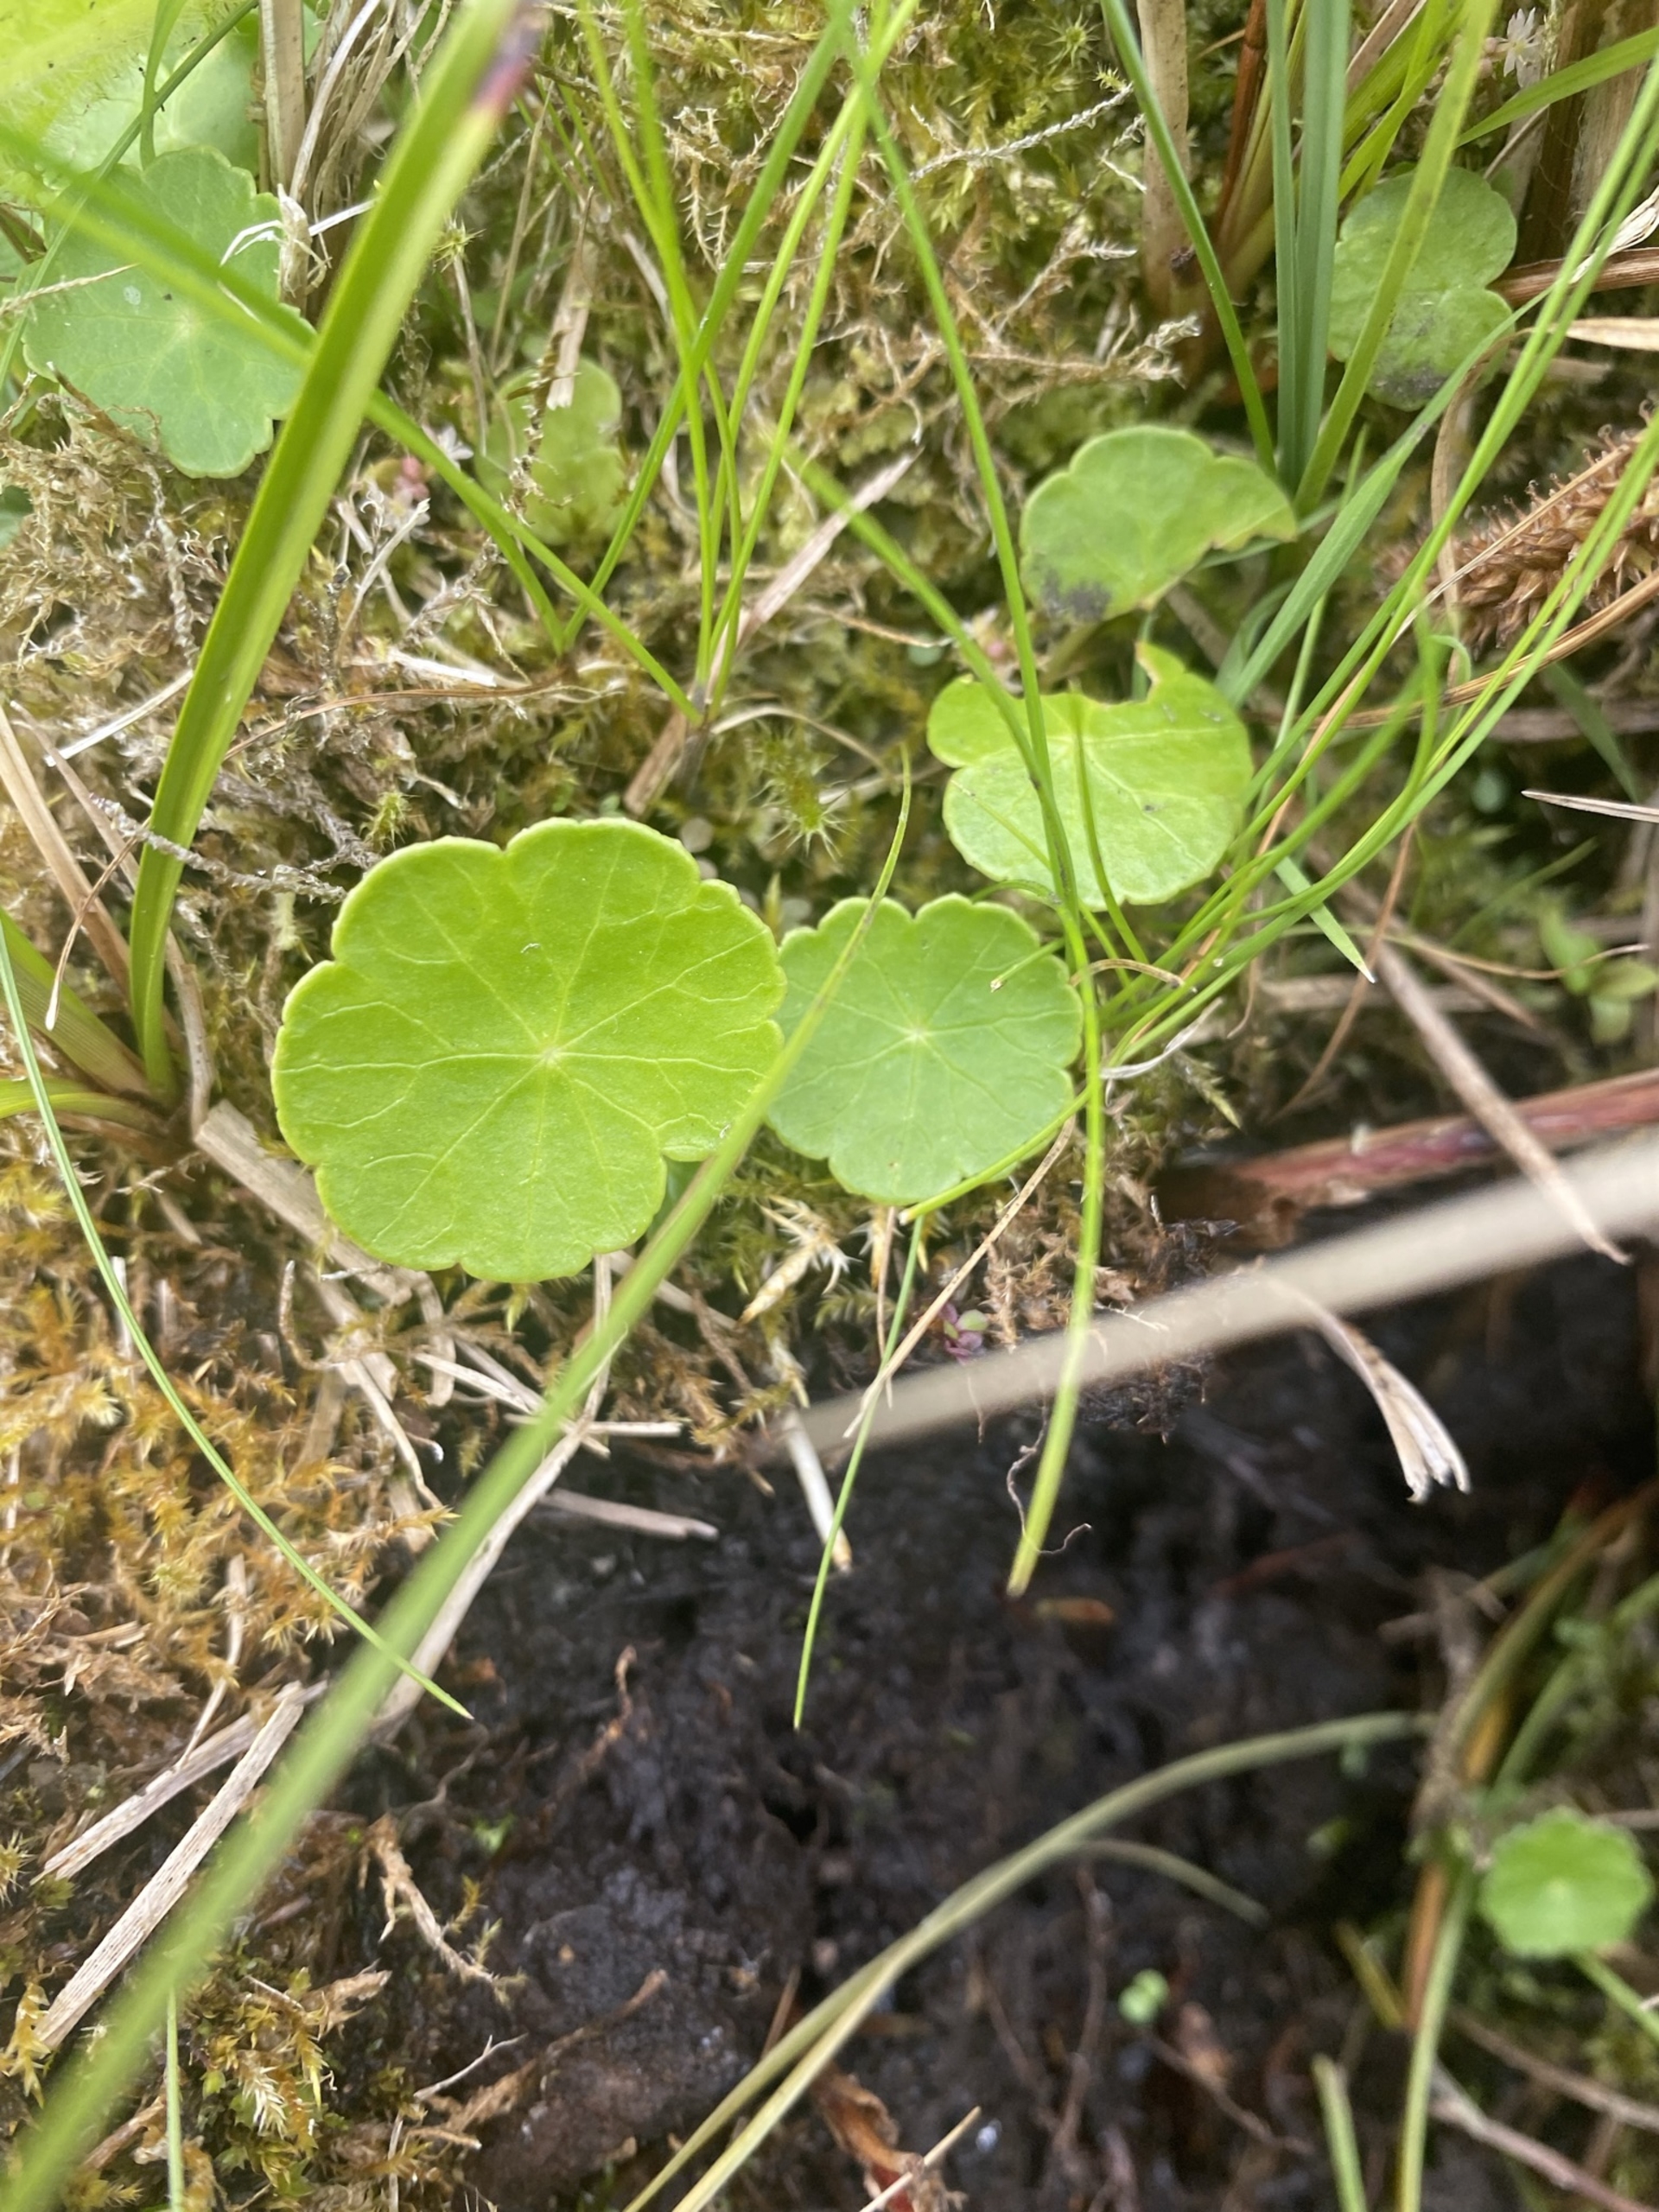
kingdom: Plantae
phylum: Tracheophyta
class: Magnoliopsida
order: Apiales
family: Araliaceae
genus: Hydrocotyle
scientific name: Hydrocotyle vulgaris
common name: Vandnavle
